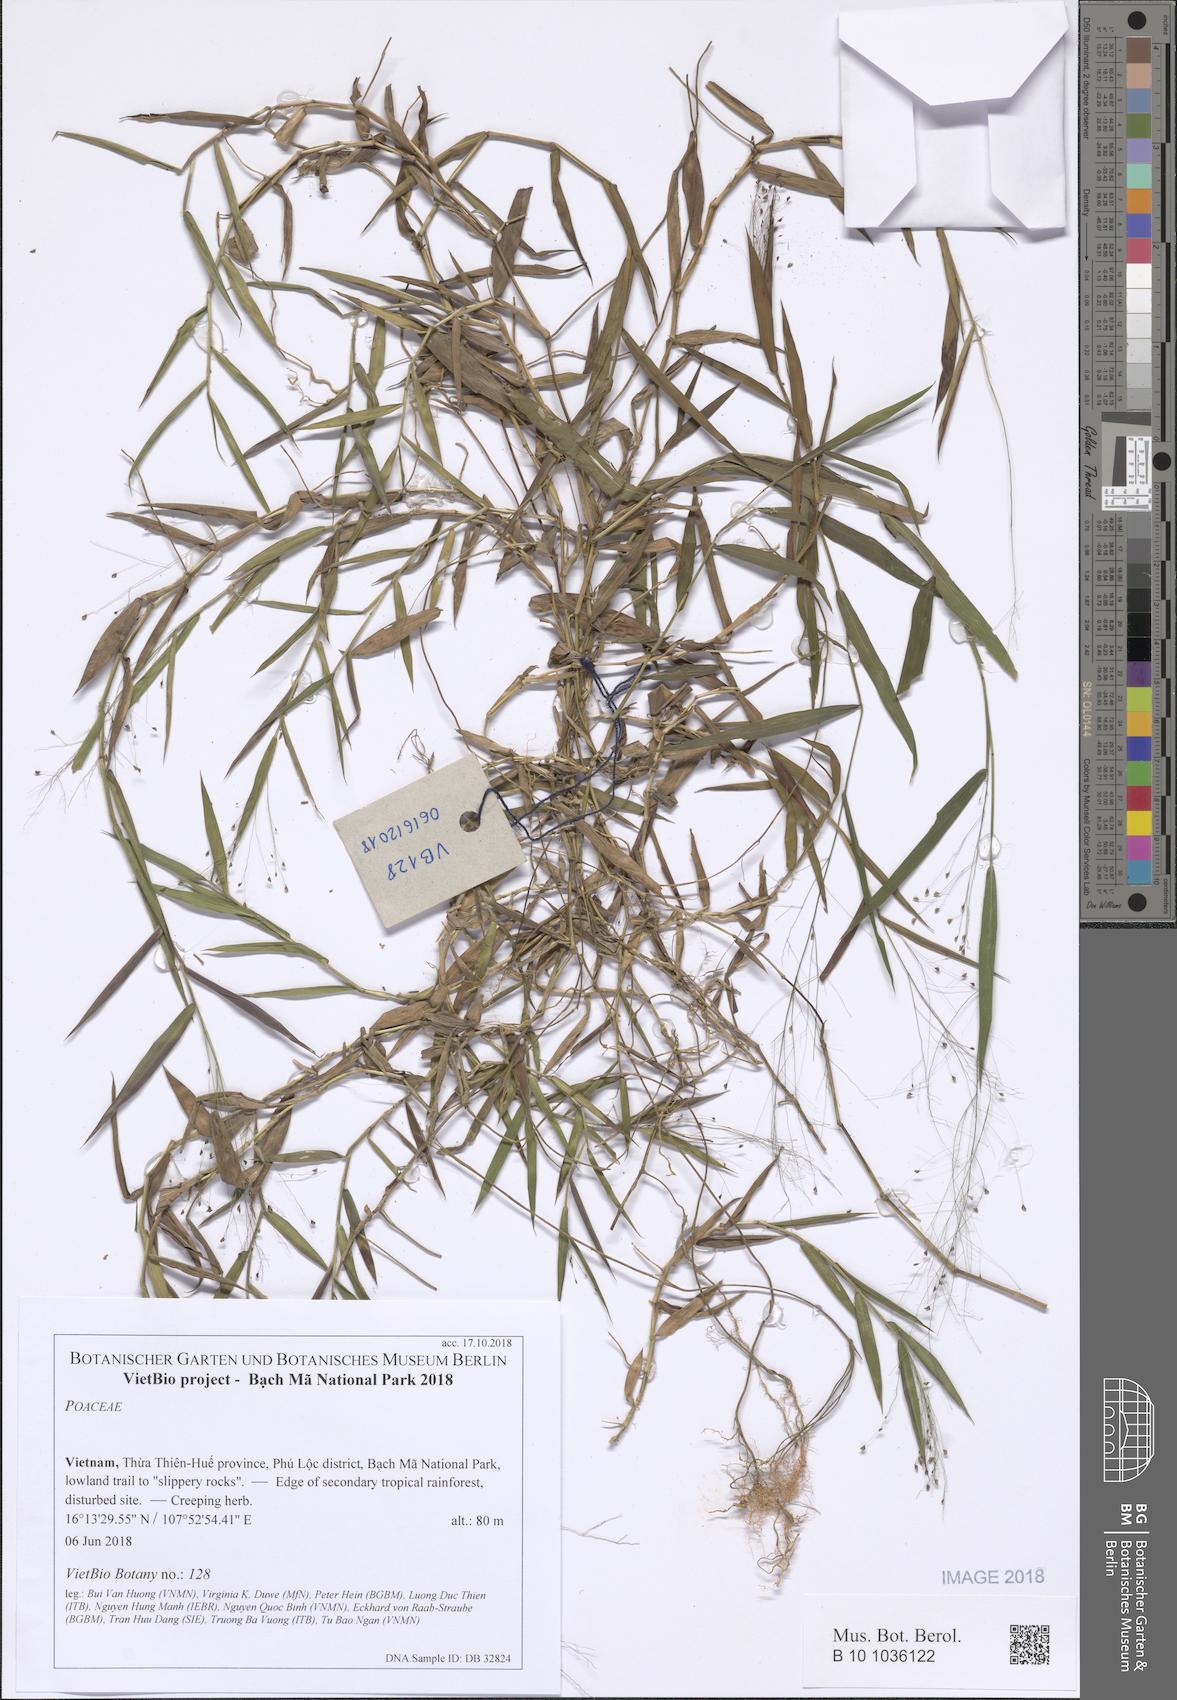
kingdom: Plantae
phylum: Tracheophyta
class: Liliopsida
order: Poales
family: Poaceae
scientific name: Poaceae
